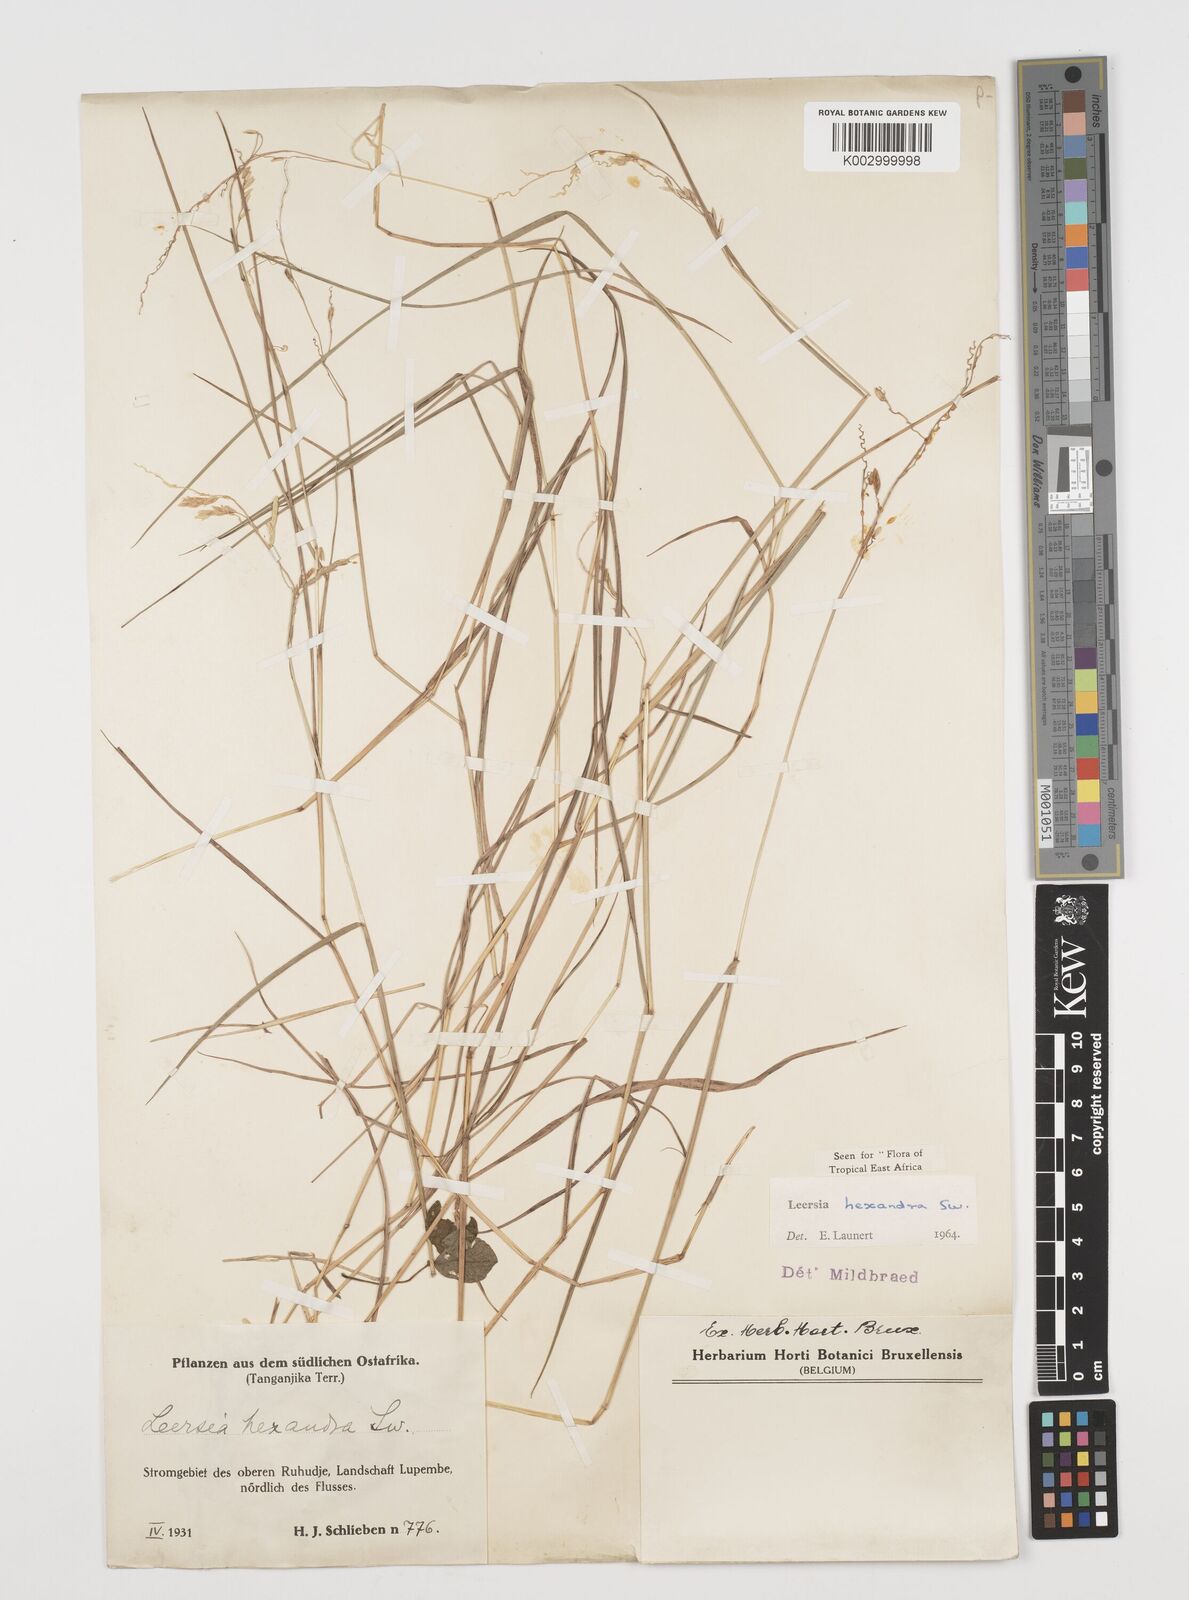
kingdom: Plantae
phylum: Tracheophyta
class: Liliopsida
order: Poales
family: Poaceae
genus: Leersia
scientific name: Leersia hexandra
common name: Southern cut grass
